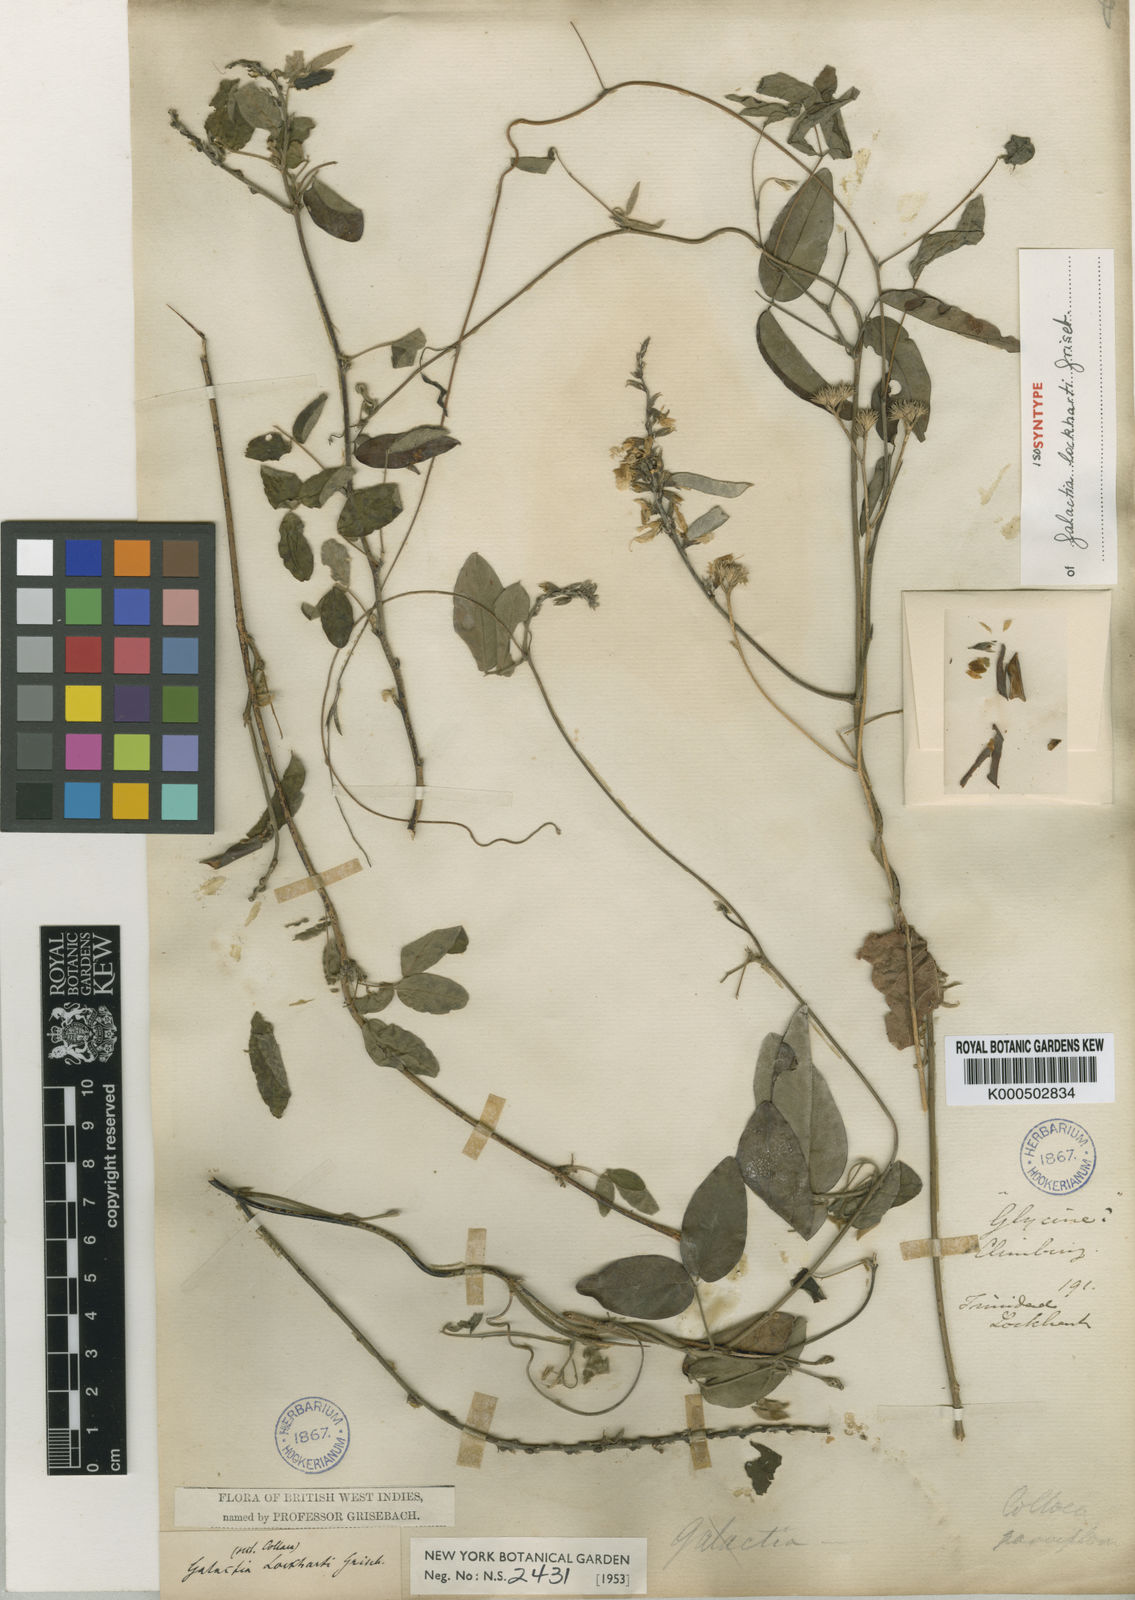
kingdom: Plantae
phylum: Tracheophyta
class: Magnoliopsida
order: Fabales
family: Fabaceae
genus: Galactia
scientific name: Galactia lockhartii
